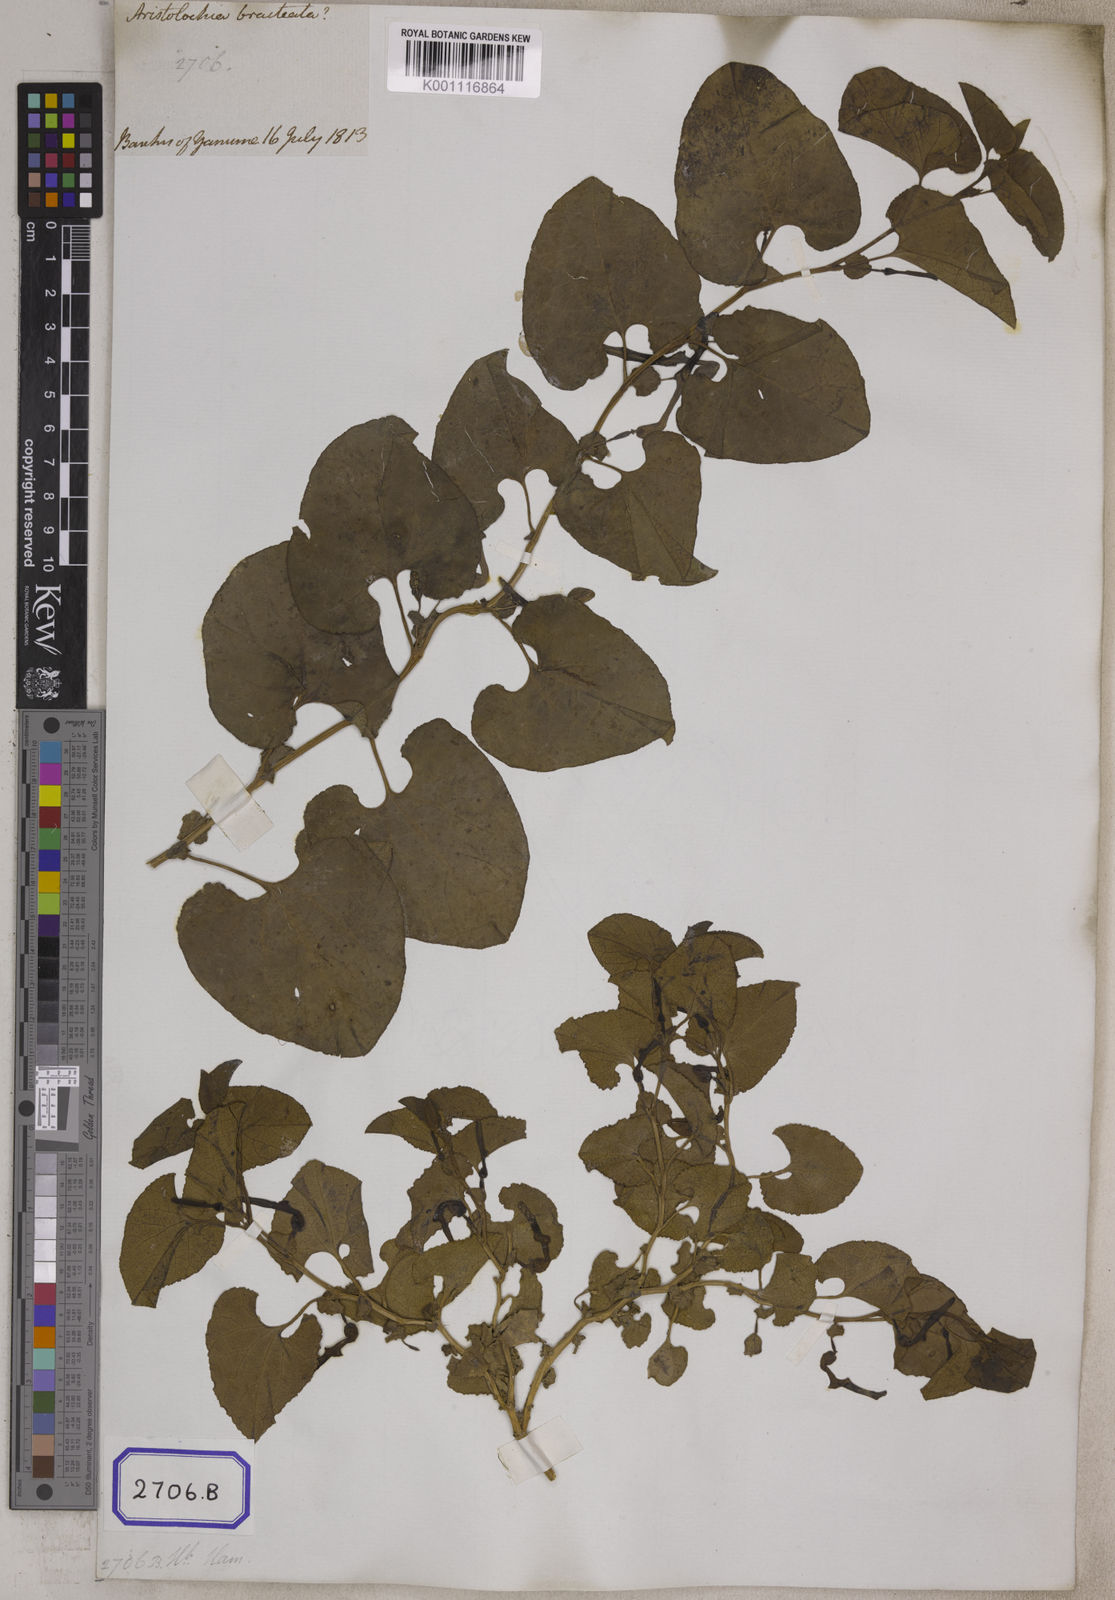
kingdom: Plantae
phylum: Tracheophyta
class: Magnoliopsida
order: Piperales
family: Aristolochiaceae
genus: Aristolochia
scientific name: Aristolochia bracteolata
